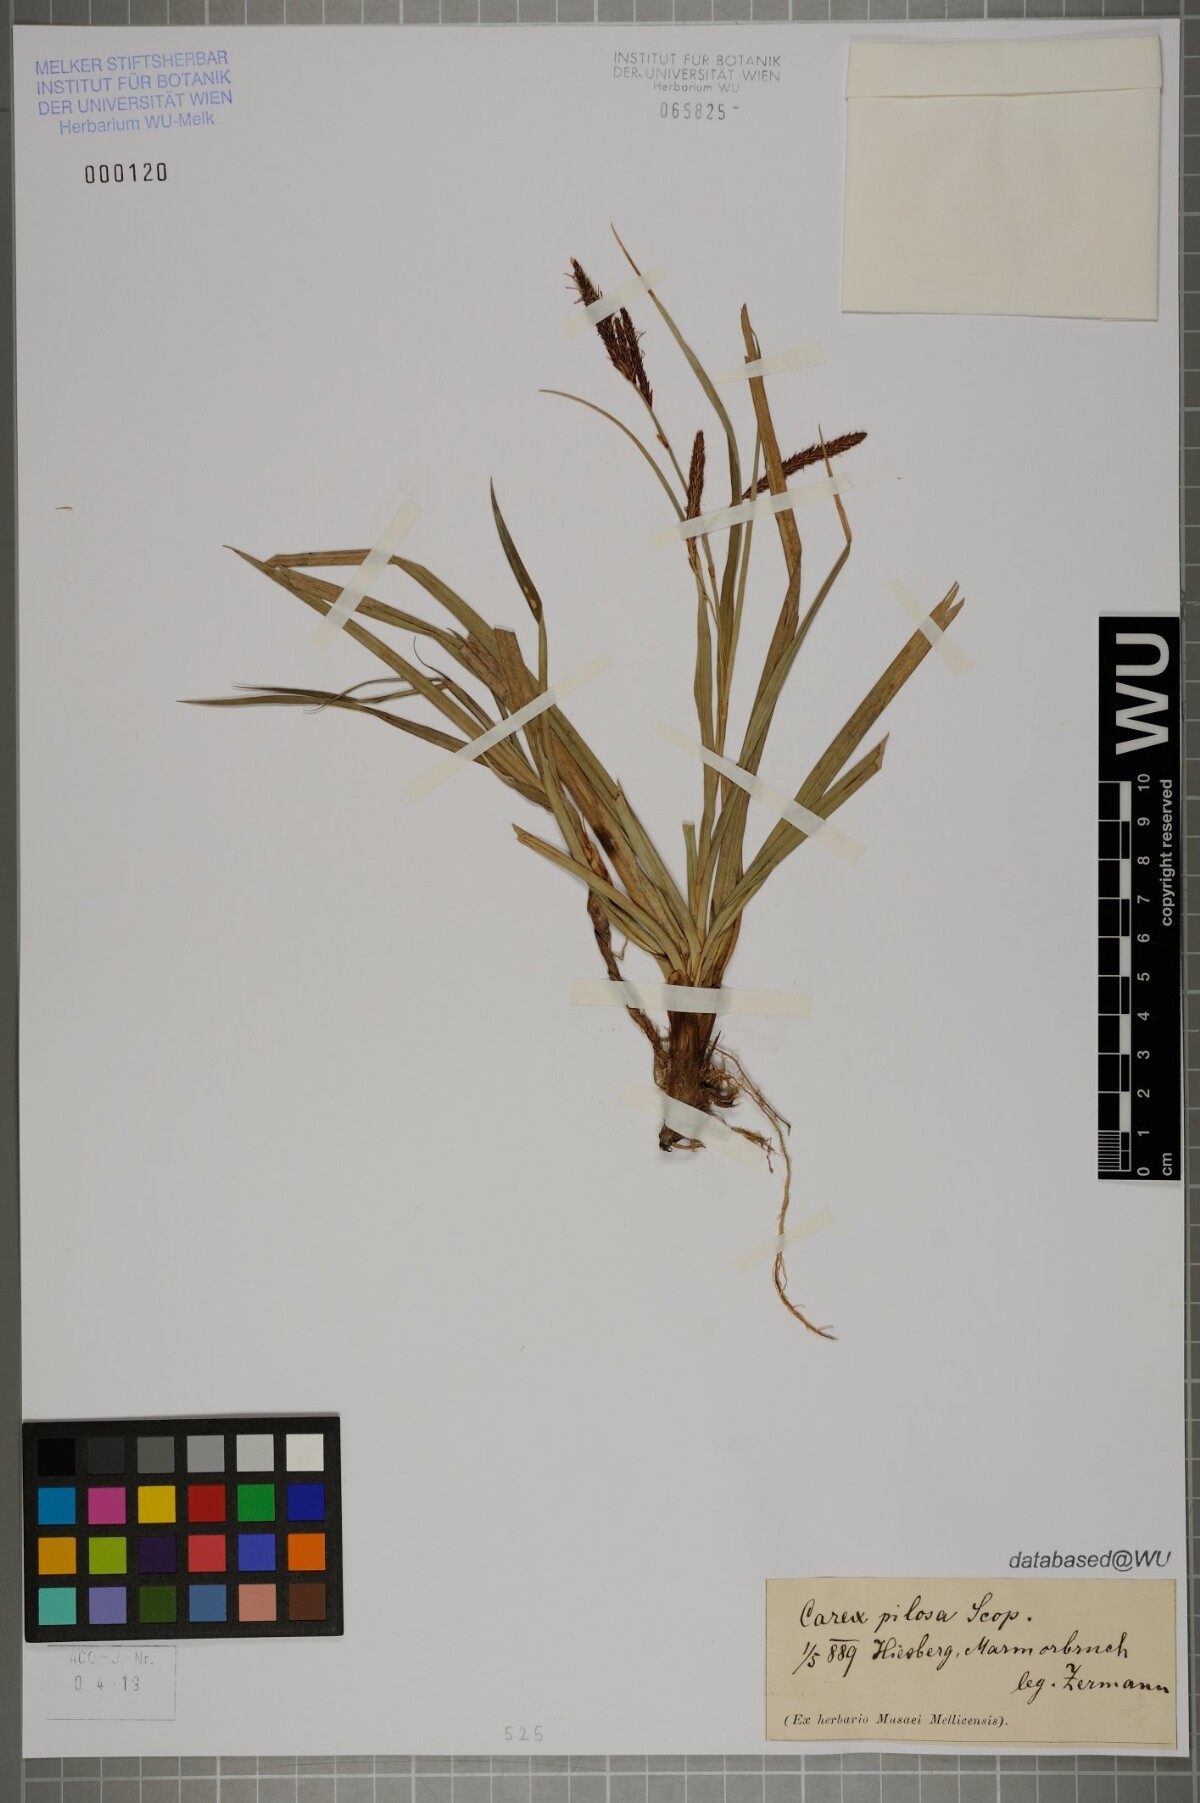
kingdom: Plantae
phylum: Tracheophyta
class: Liliopsida
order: Poales
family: Cyperaceae
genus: Carex
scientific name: Carex pilosa
